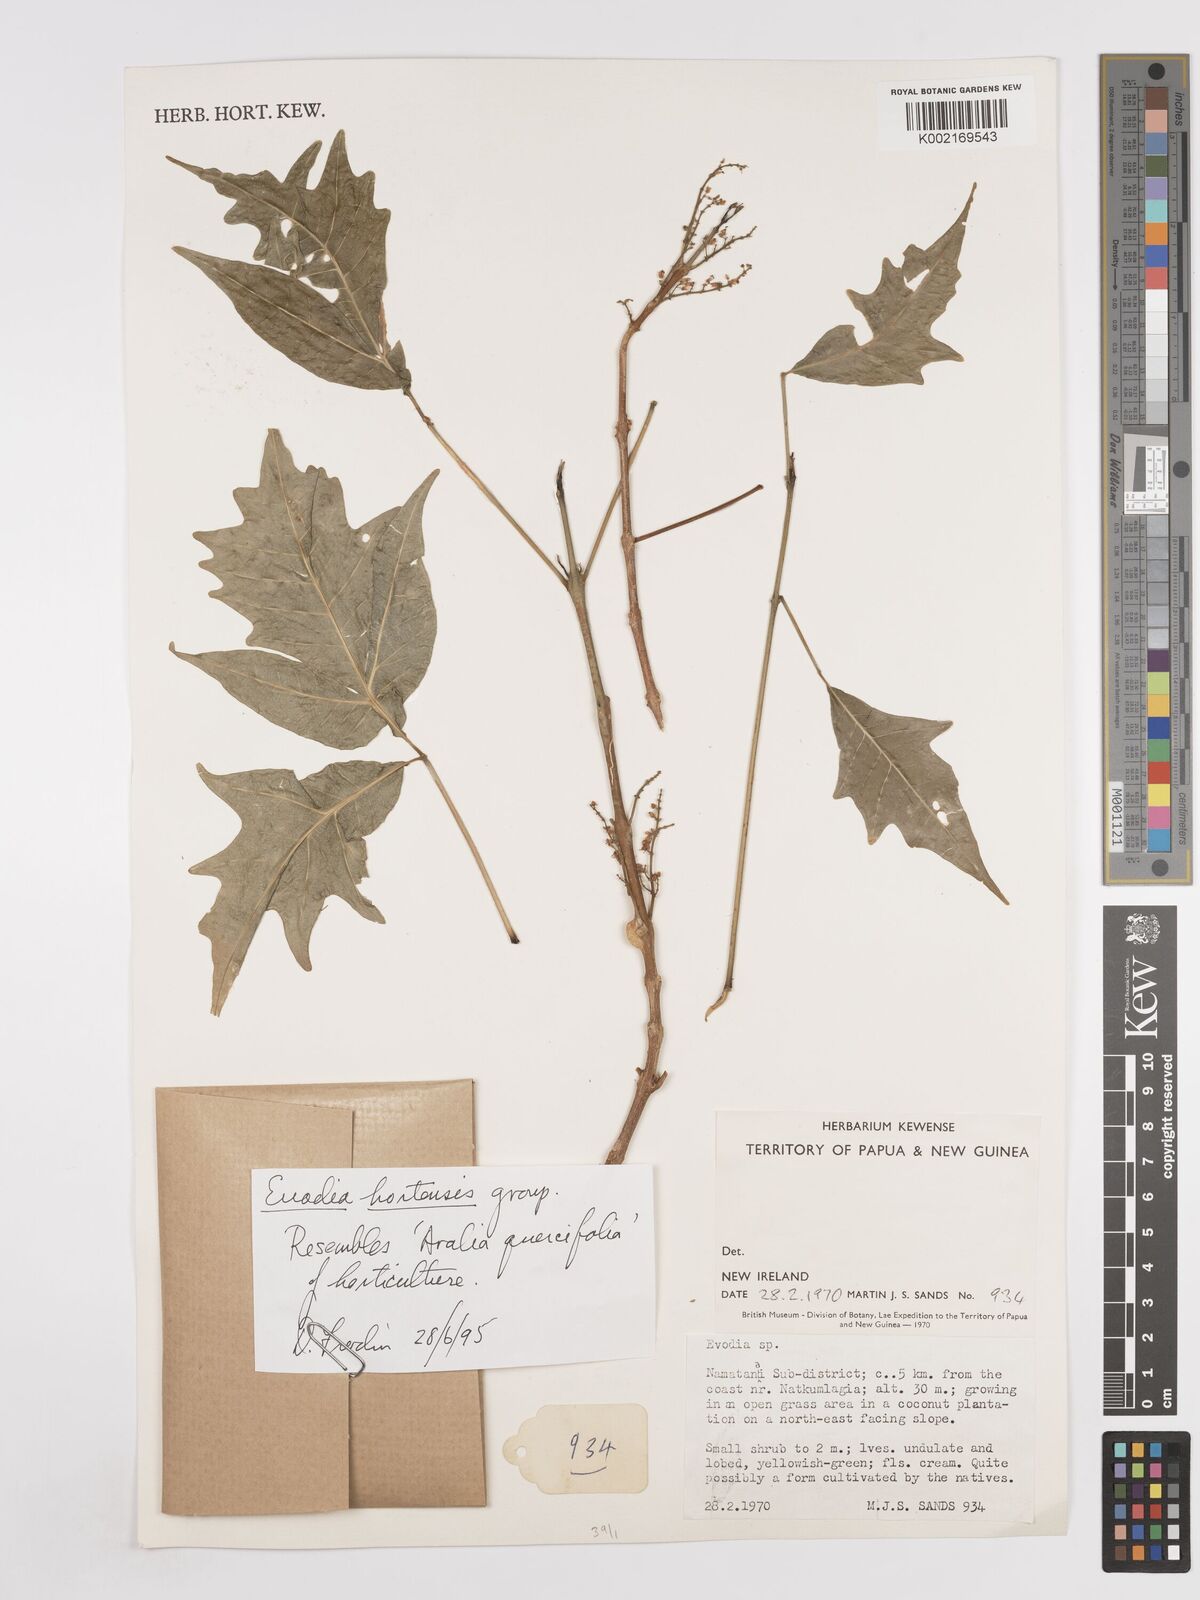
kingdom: Plantae
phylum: Tracheophyta
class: Magnoliopsida
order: Sapindales
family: Rutaceae
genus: Euodia
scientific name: Euodia
